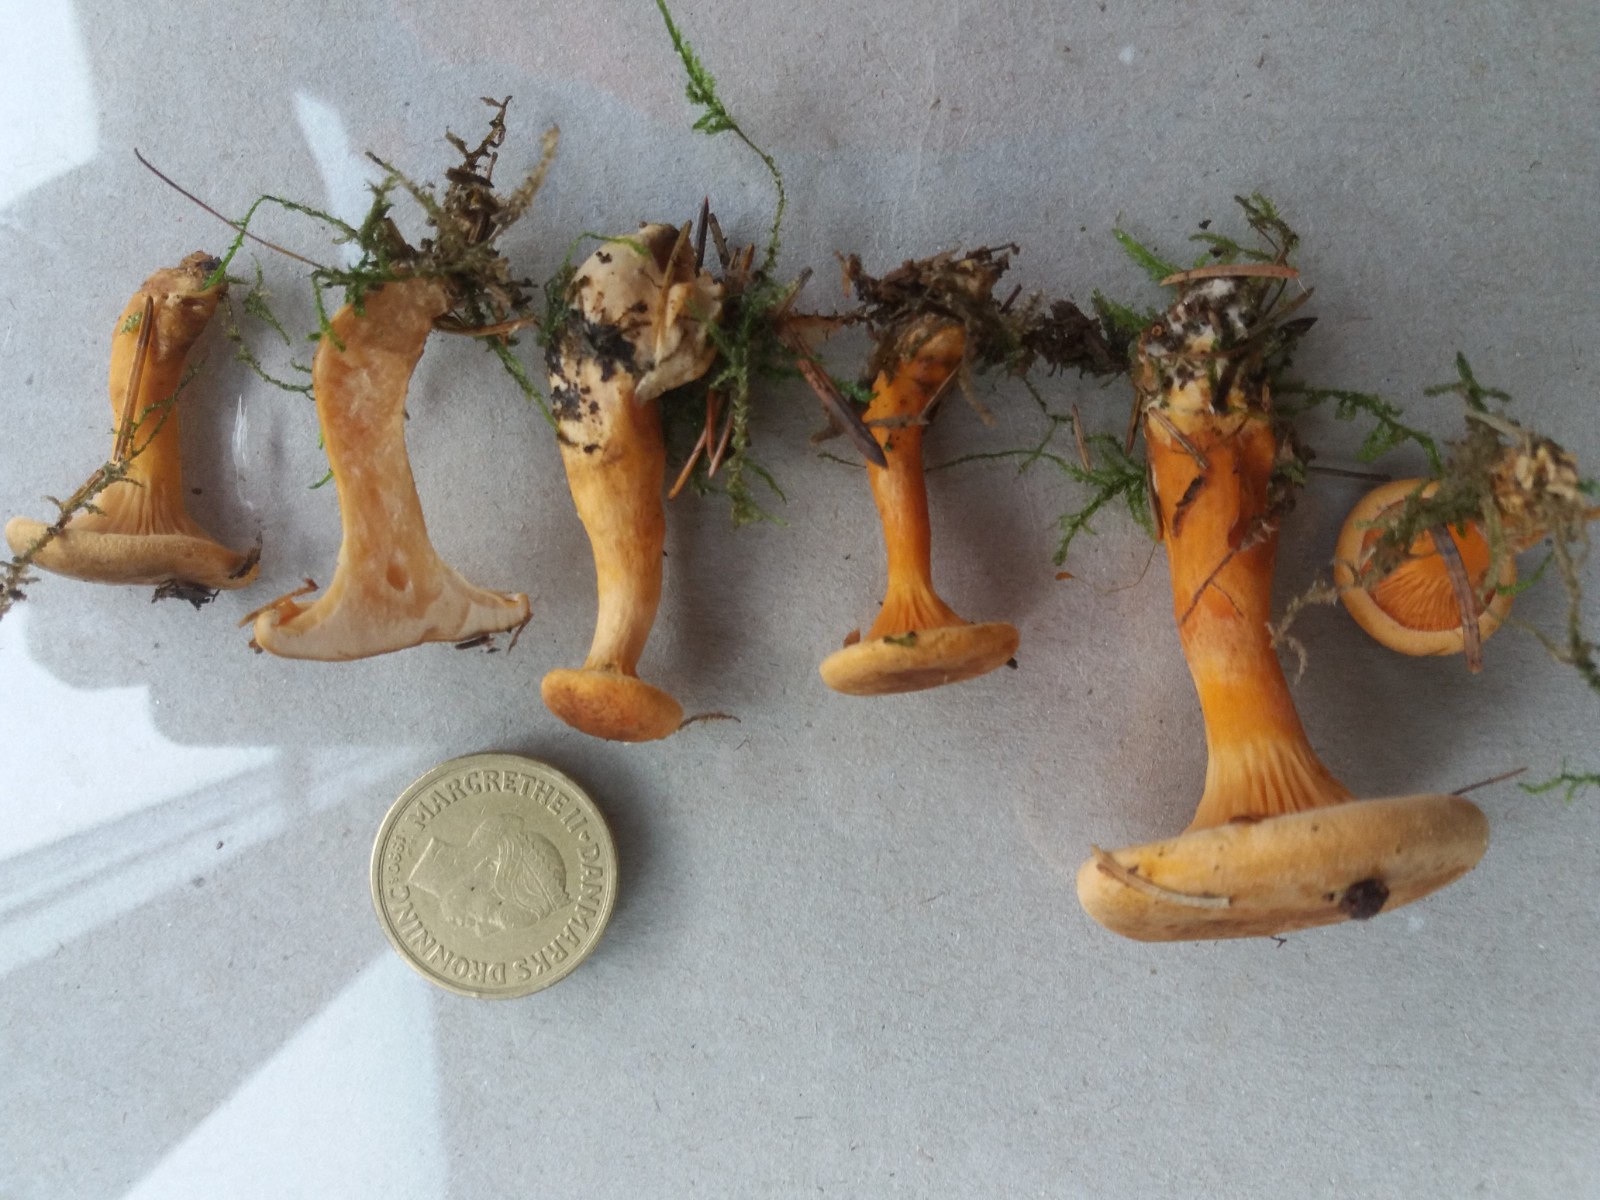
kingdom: Fungi
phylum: Basidiomycota
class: Agaricomycetes
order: Boletales
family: Hygrophoropsidaceae
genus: Hygrophoropsis
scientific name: Hygrophoropsis rufa
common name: brunfiltet orangekantarel
